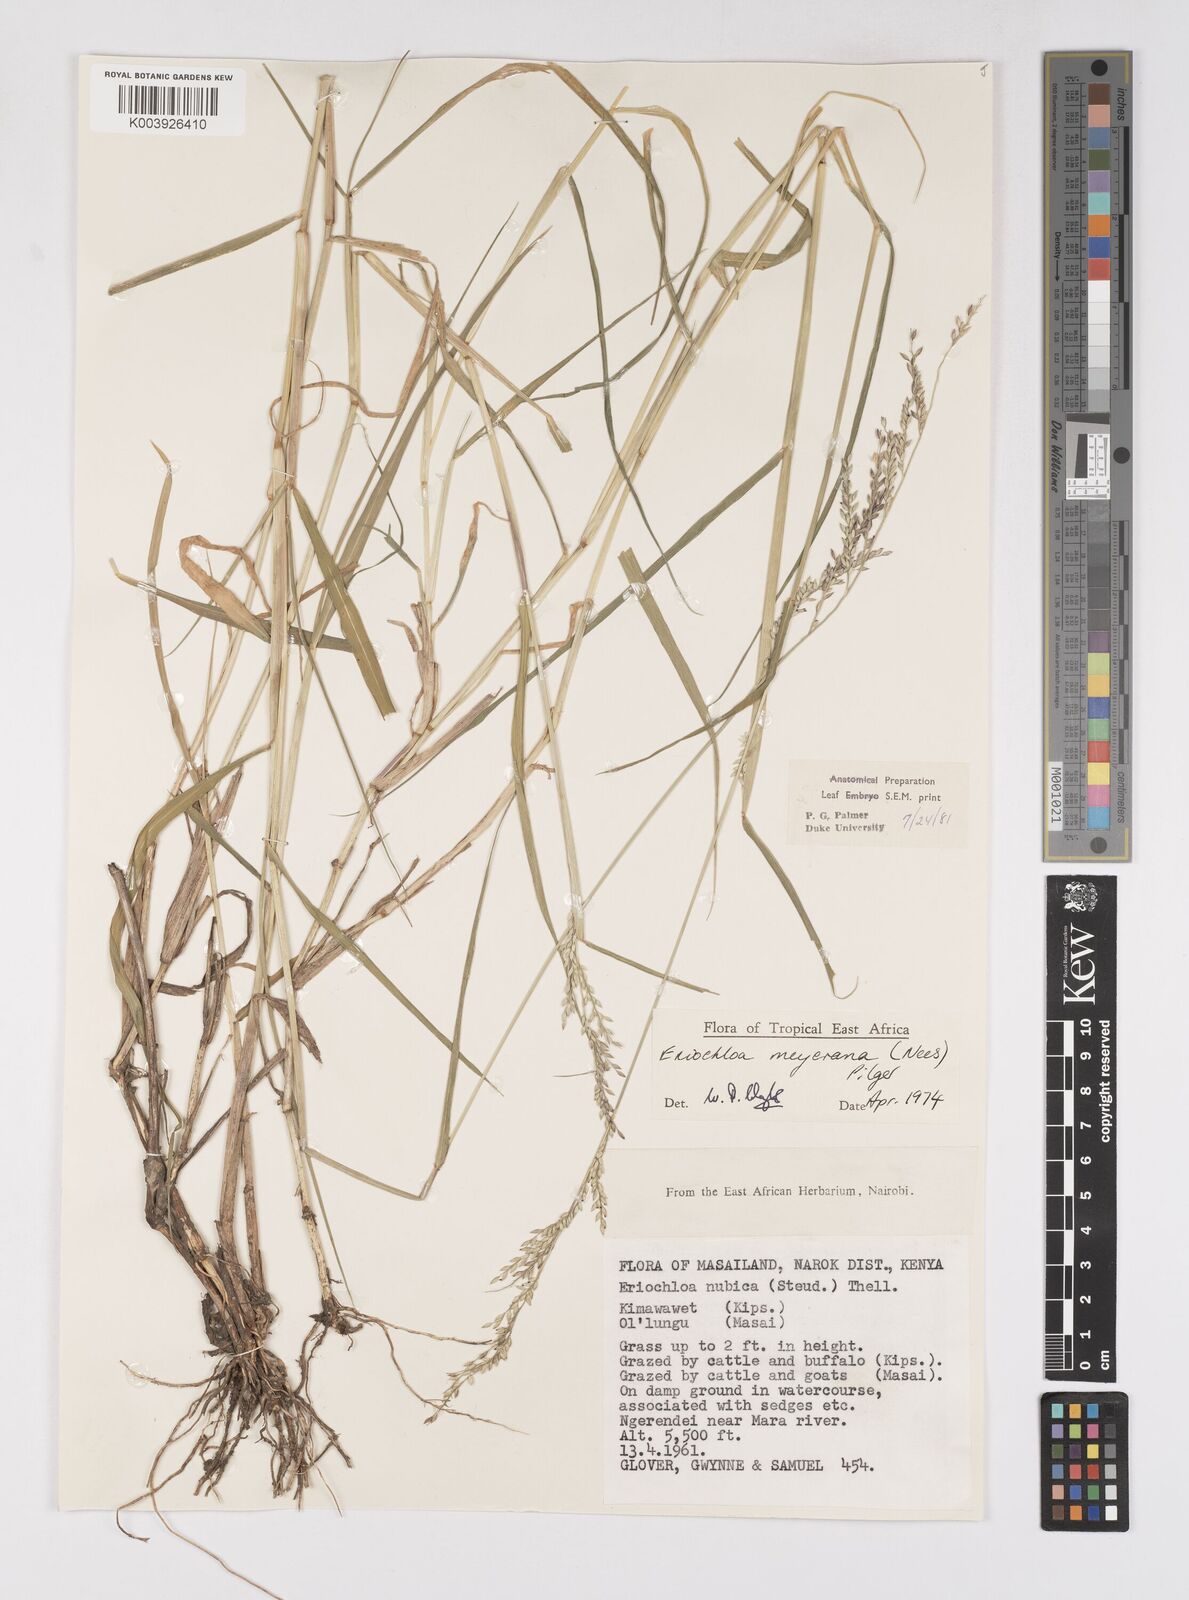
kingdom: Plantae
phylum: Tracheophyta
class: Liliopsida
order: Poales
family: Poaceae
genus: Eriochloa
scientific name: Eriochloa meyeriana
